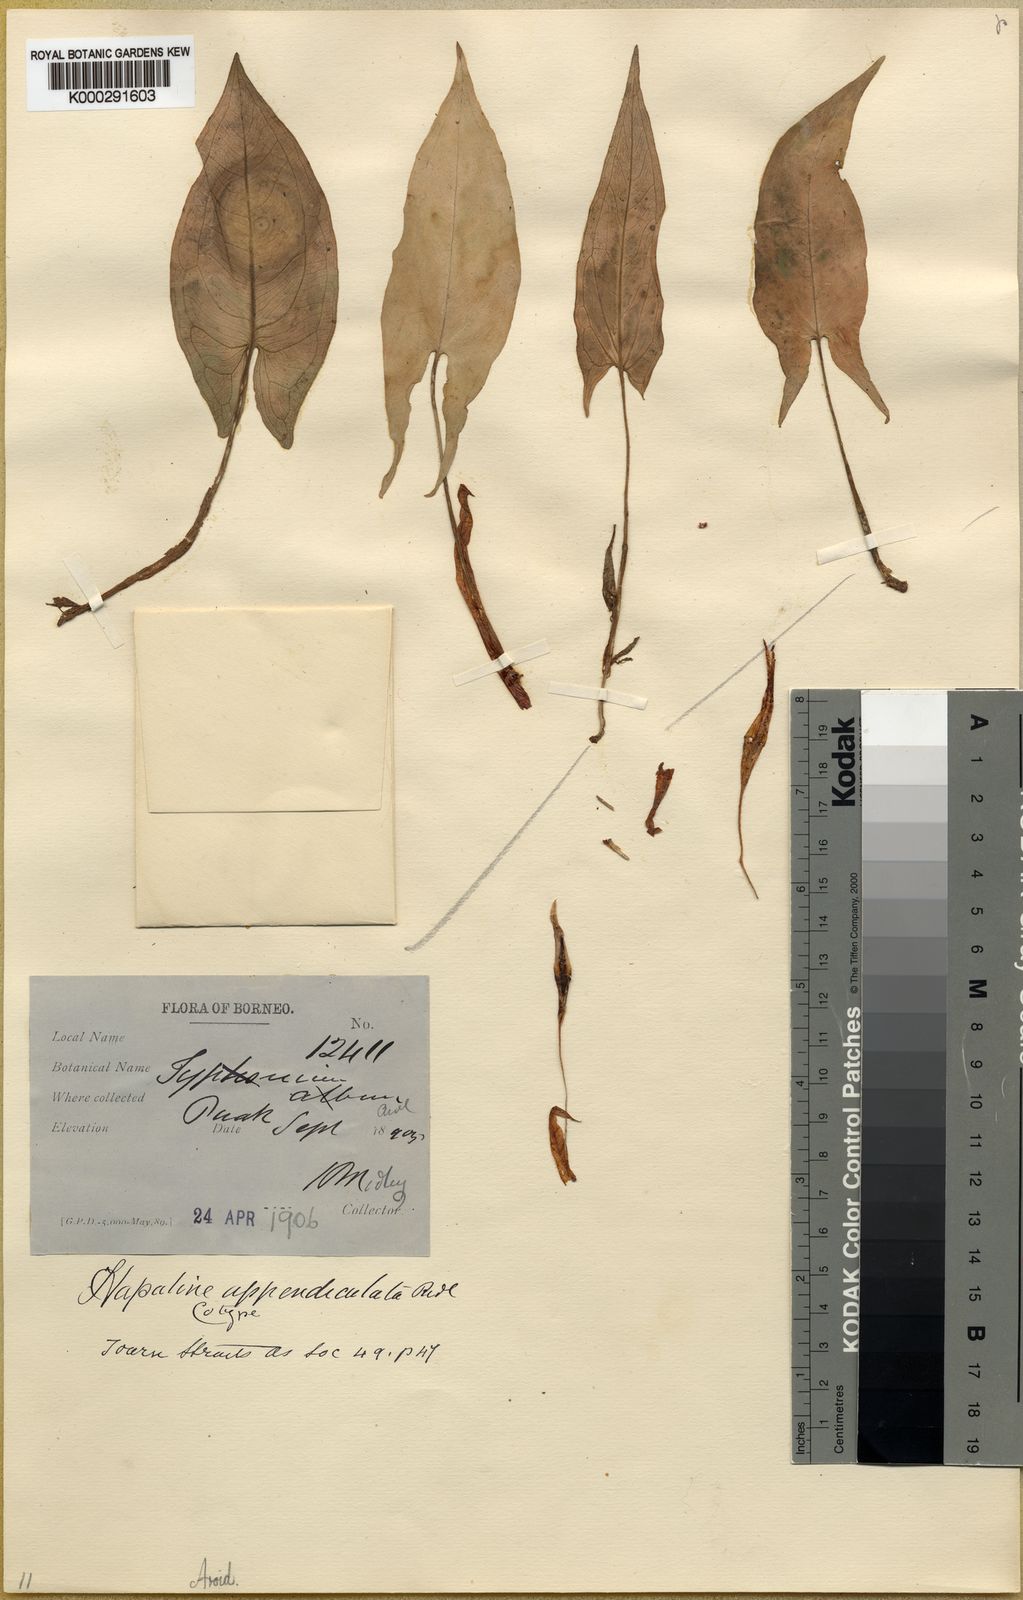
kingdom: Plantae
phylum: Tracheophyta
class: Liliopsida
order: Alismatales
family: Araceae
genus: Hapaline
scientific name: Hapaline appendiculata
